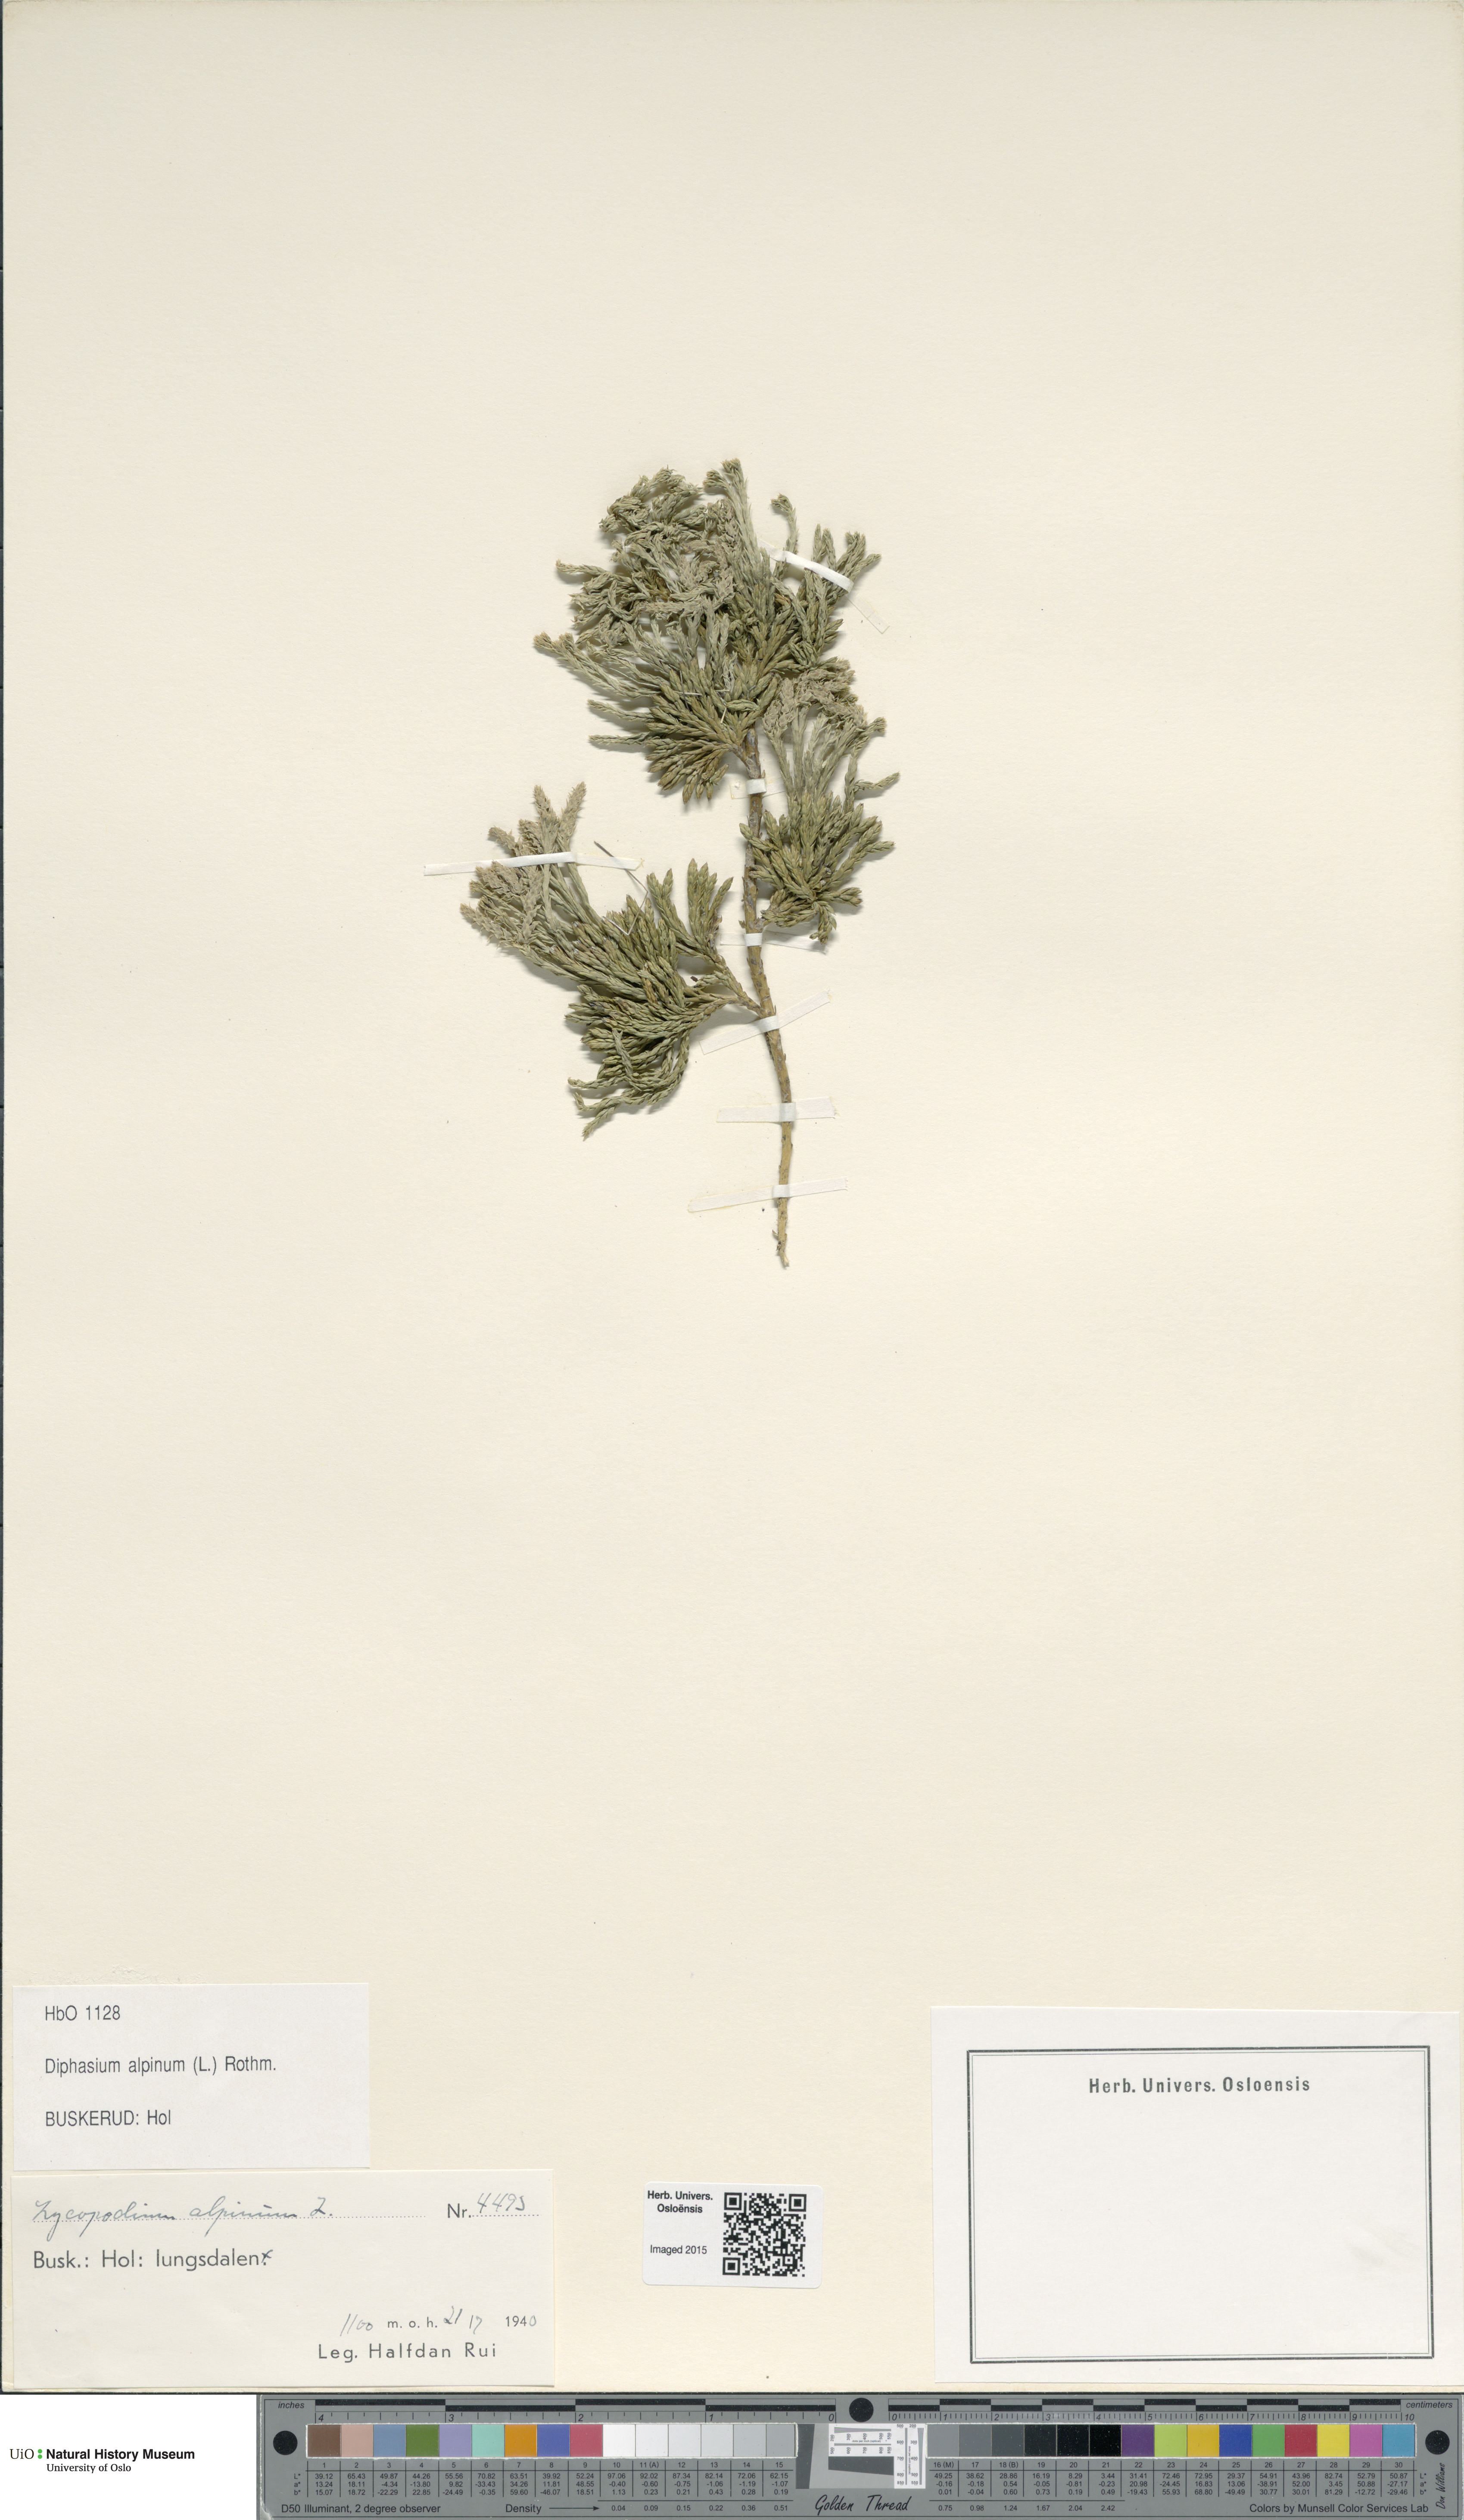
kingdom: Plantae
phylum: Tracheophyta
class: Lycopodiopsida
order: Lycopodiales
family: Lycopodiaceae
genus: Diphasiastrum
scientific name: Diphasiastrum alpinum
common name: Alpine clubmoss
